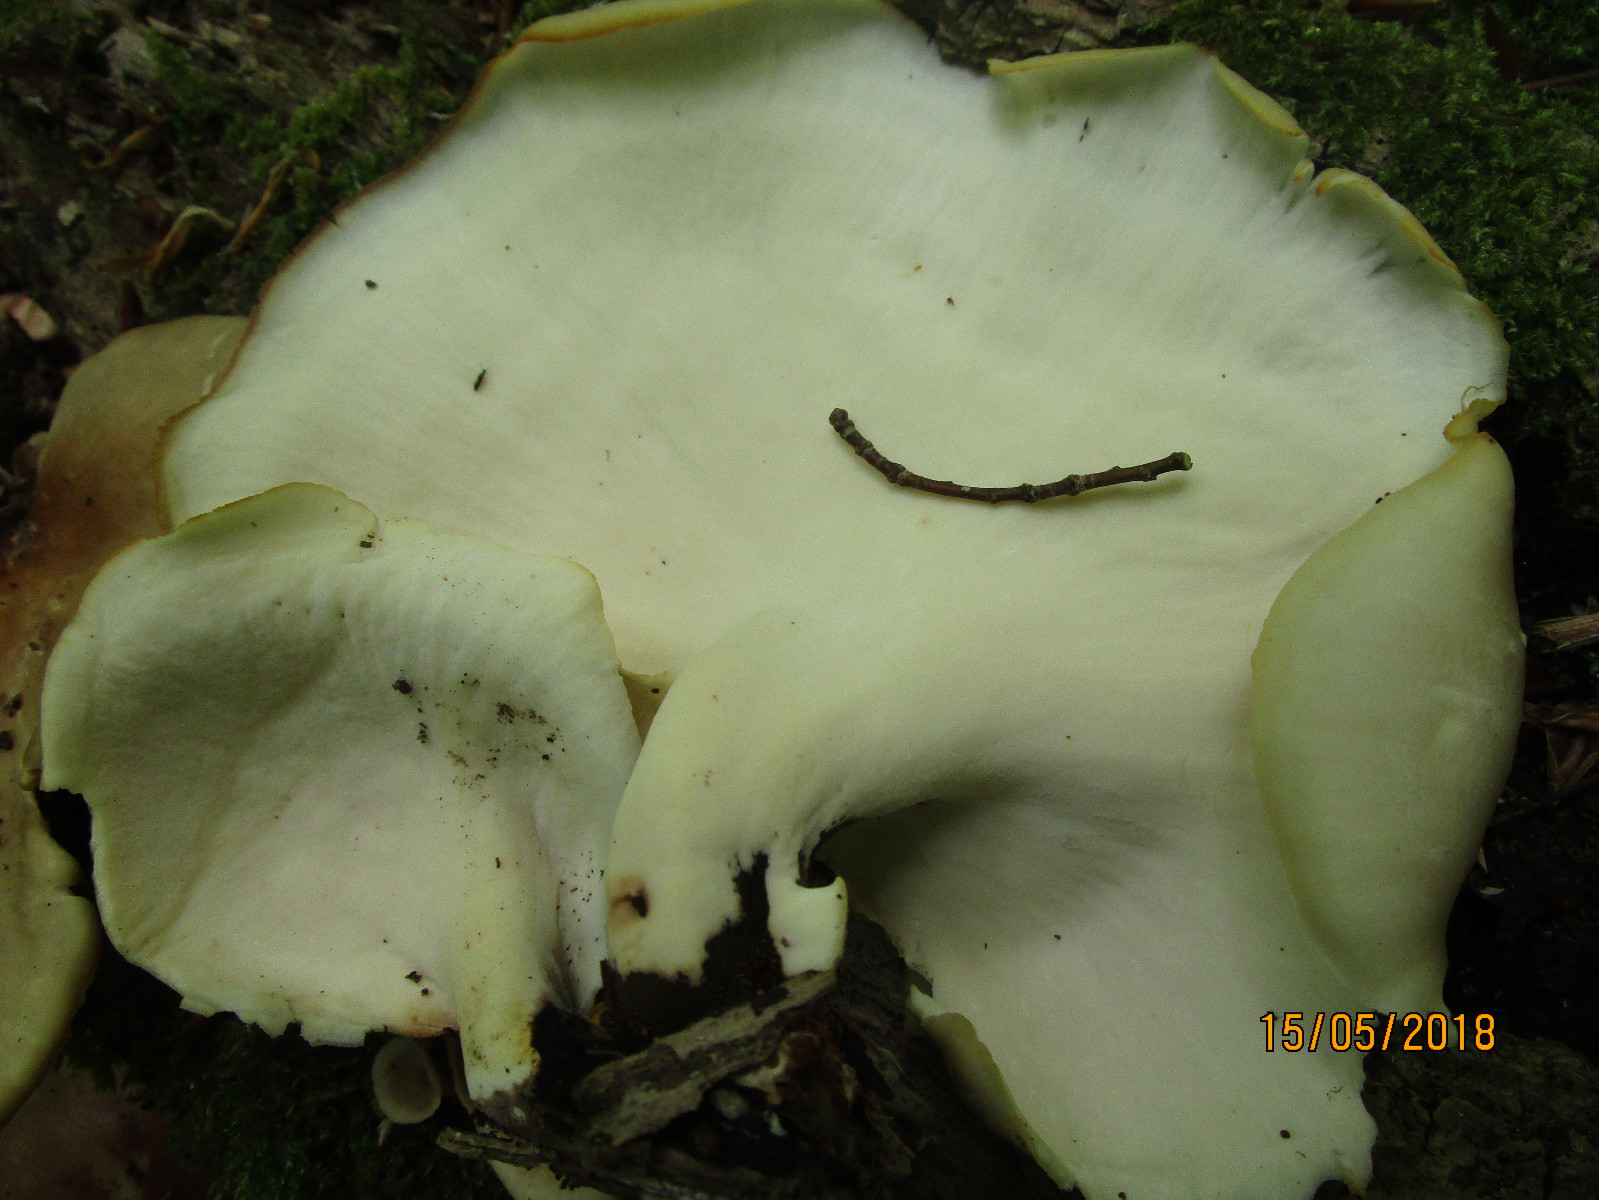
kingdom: Fungi
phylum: Basidiomycota
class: Agaricomycetes
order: Polyporales
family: Polyporaceae
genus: Picipes
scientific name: Picipes badius
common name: kastaniebrun stilkporesvamp
